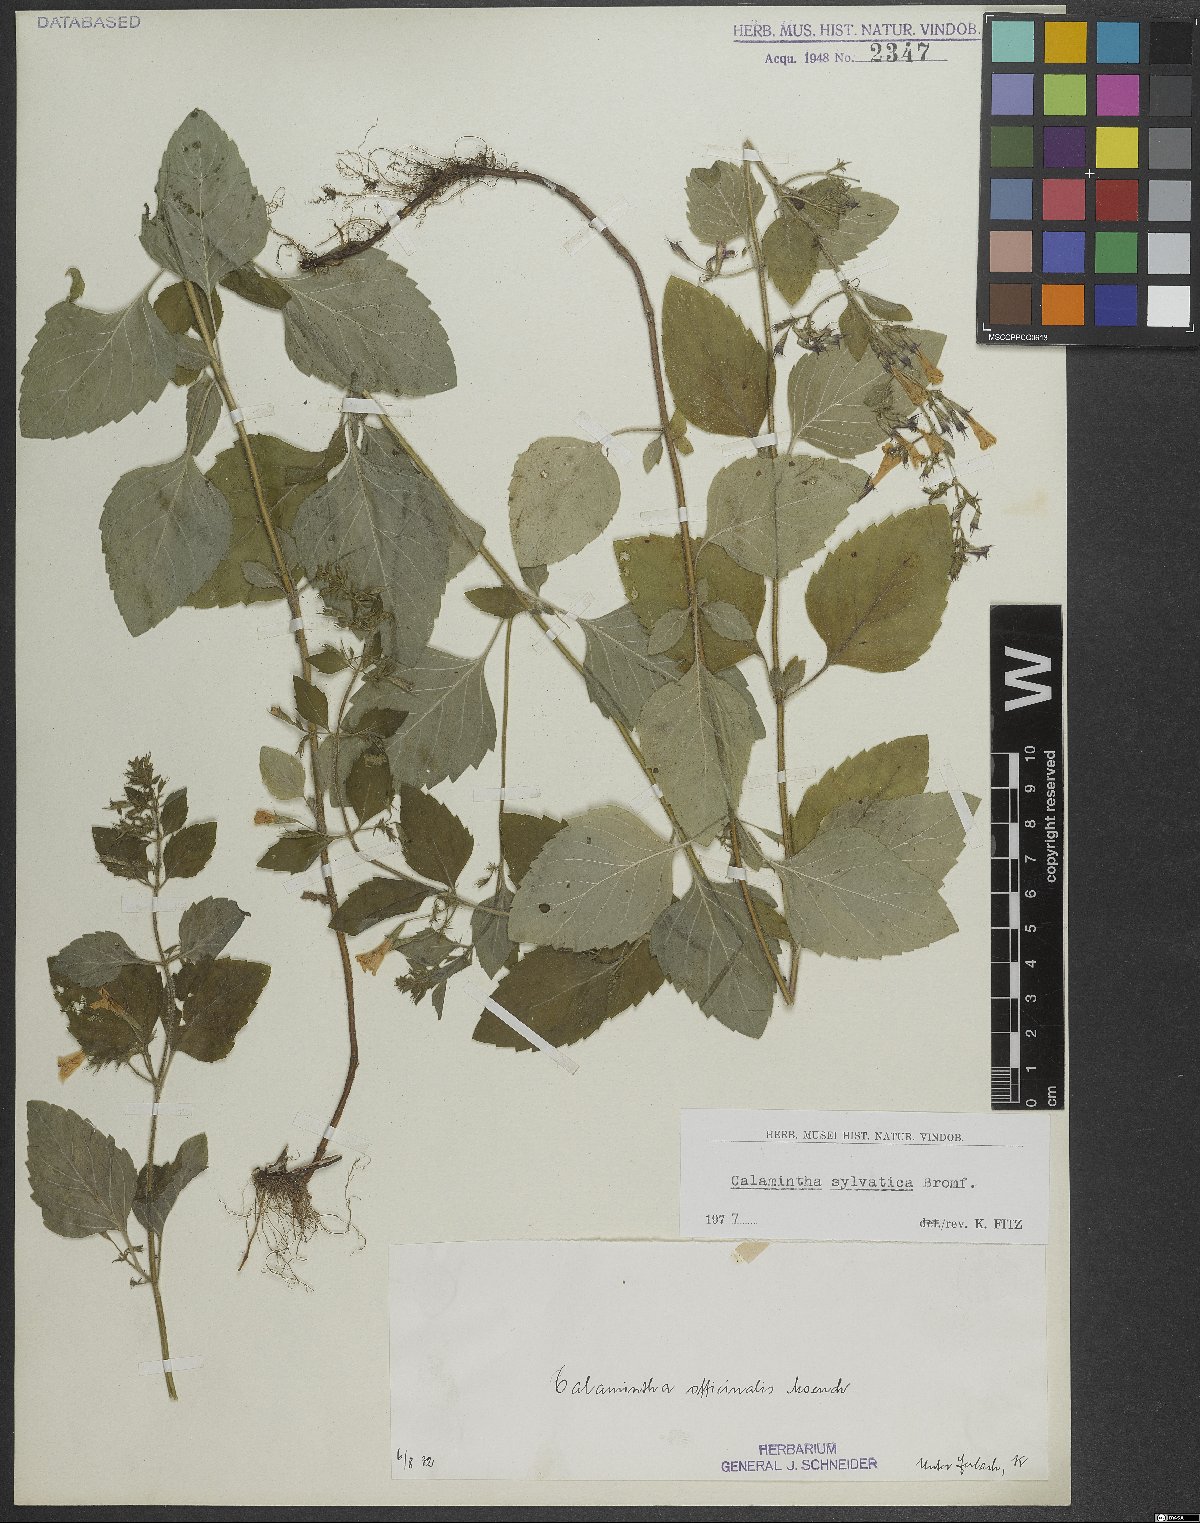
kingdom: Plantae
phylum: Tracheophyta
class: Magnoliopsida
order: Lamiales
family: Lamiaceae
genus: Clinopodium
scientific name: Clinopodium menthifolium
